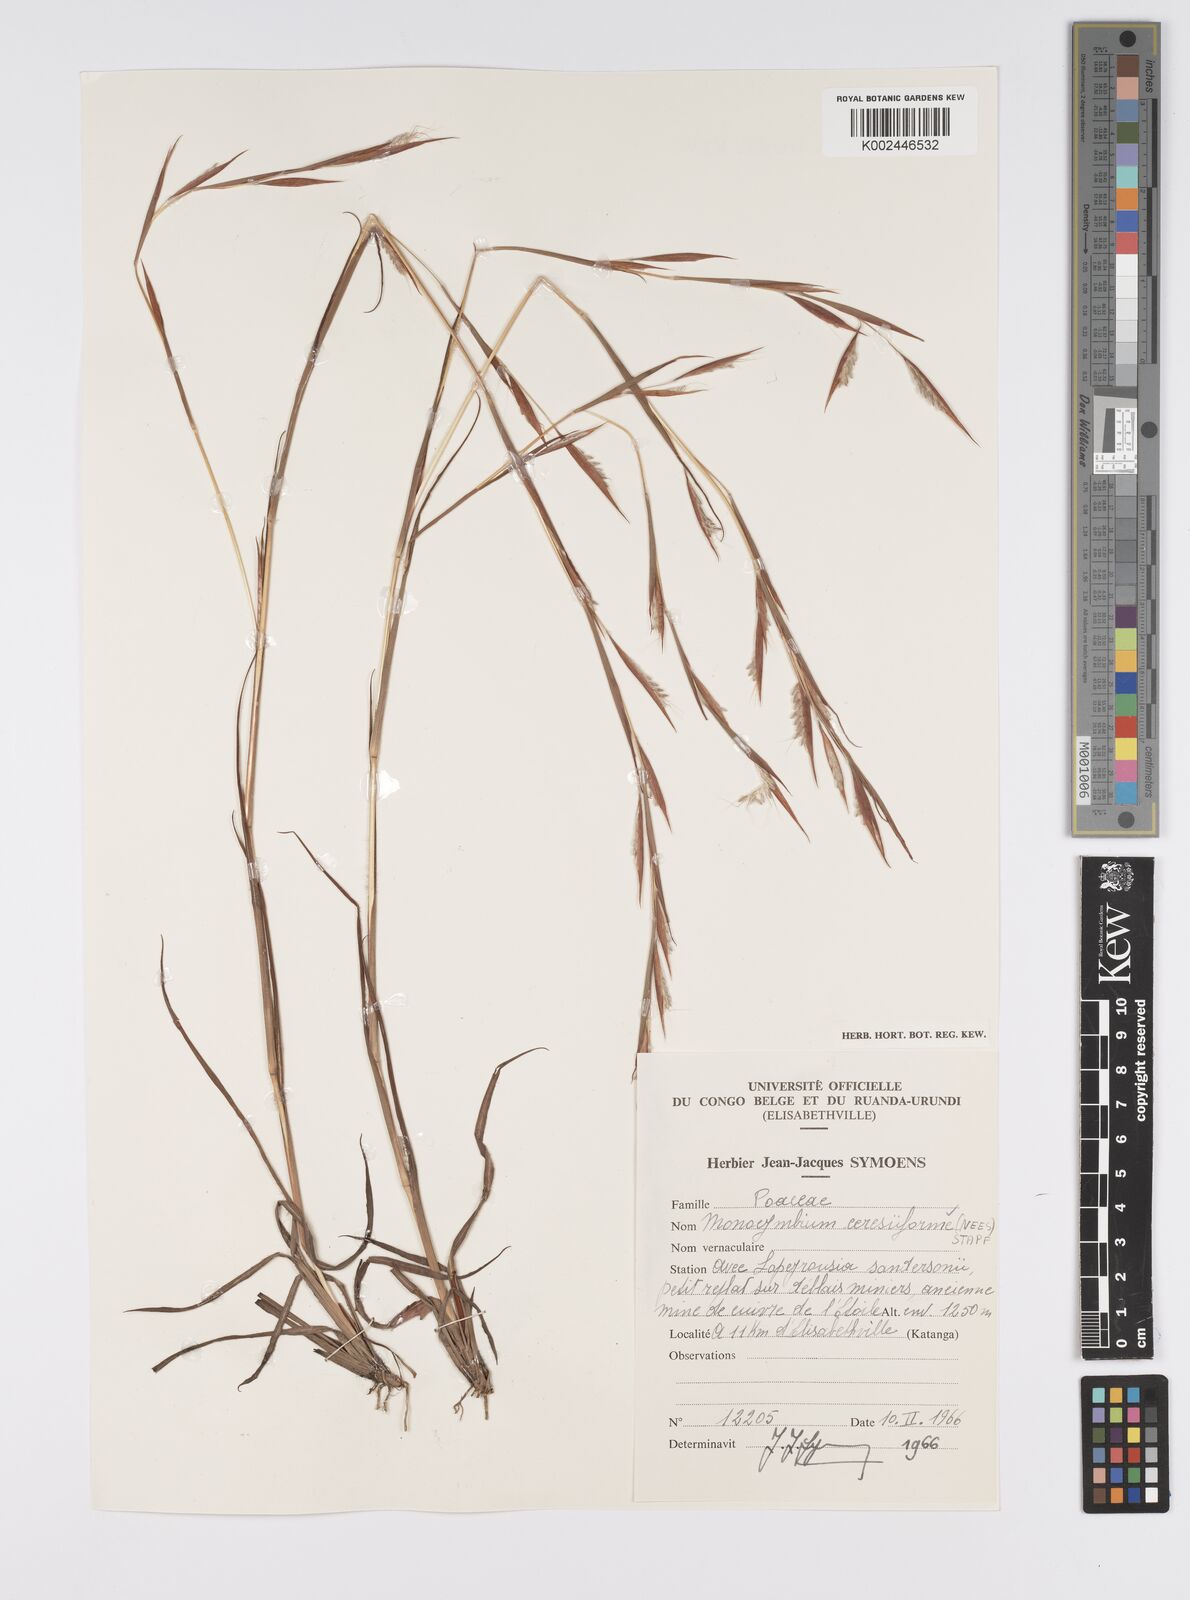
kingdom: Plantae
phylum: Tracheophyta
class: Liliopsida
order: Poales
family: Poaceae
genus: Monocymbium
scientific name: Monocymbium ceresiiforme
